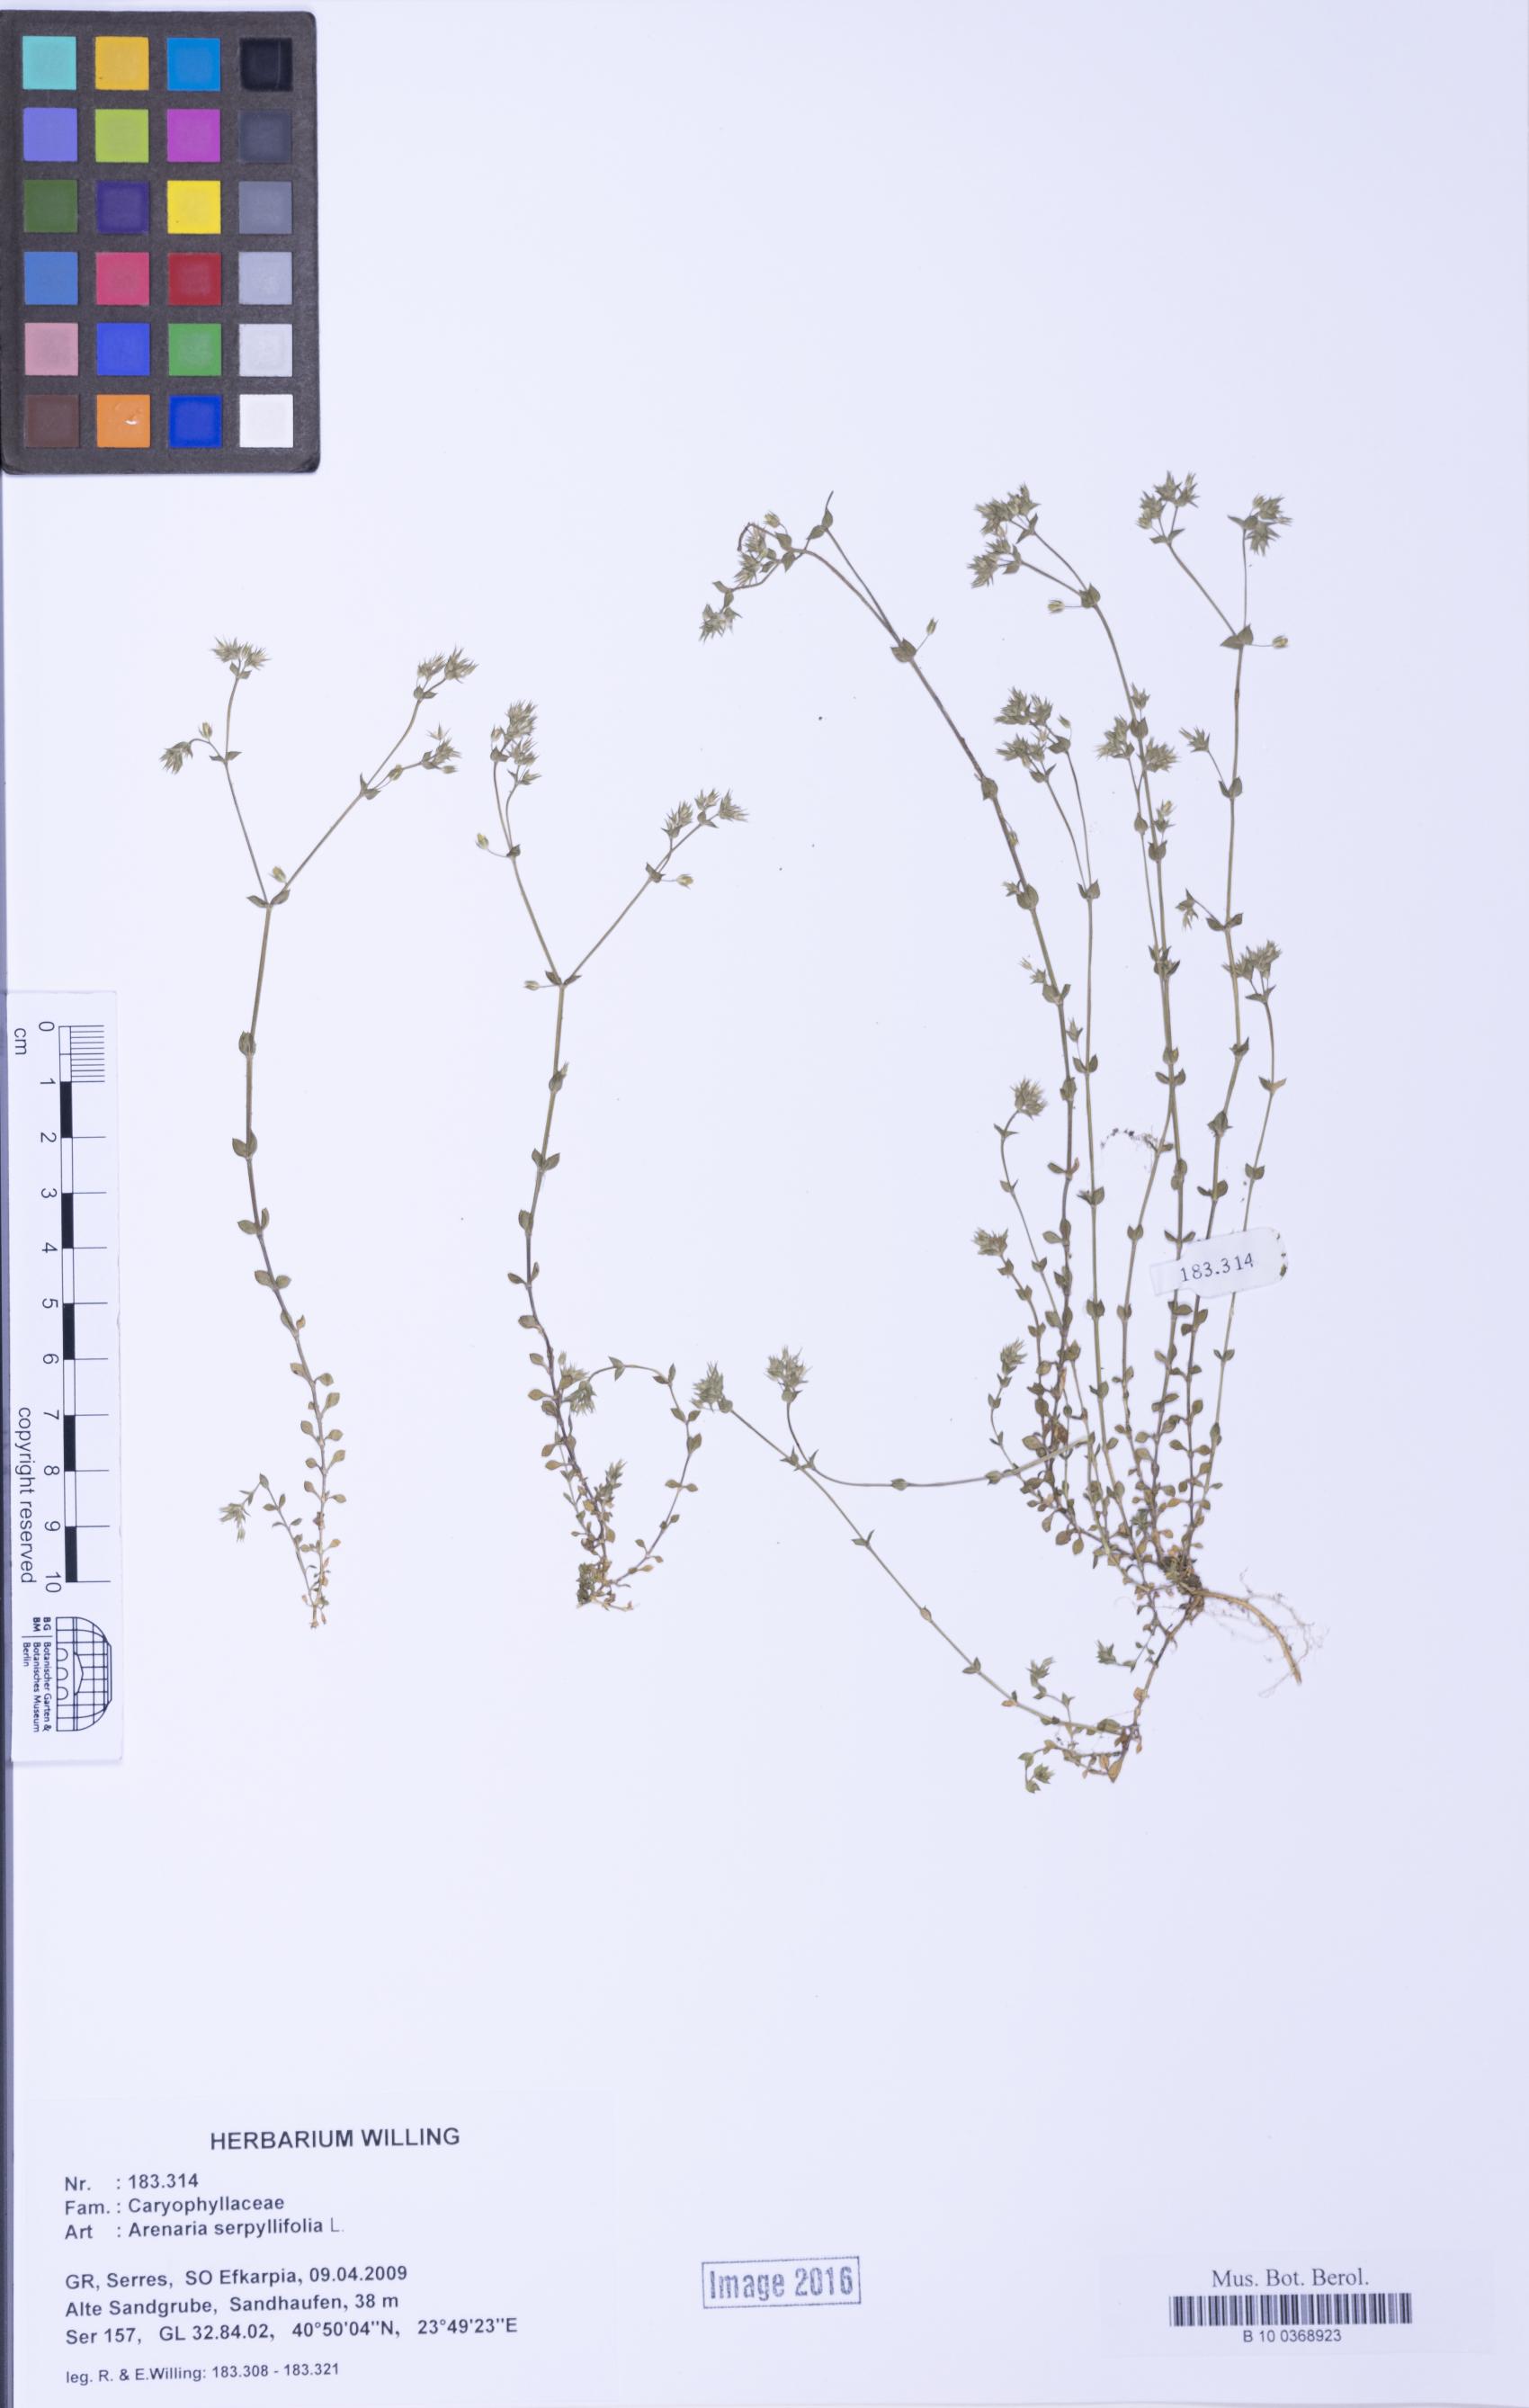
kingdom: Plantae
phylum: Tracheophyta
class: Magnoliopsida
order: Caryophyllales
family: Caryophyllaceae
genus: Arenaria
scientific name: Arenaria serpyllifolia
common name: Thyme-leaved sandwort
